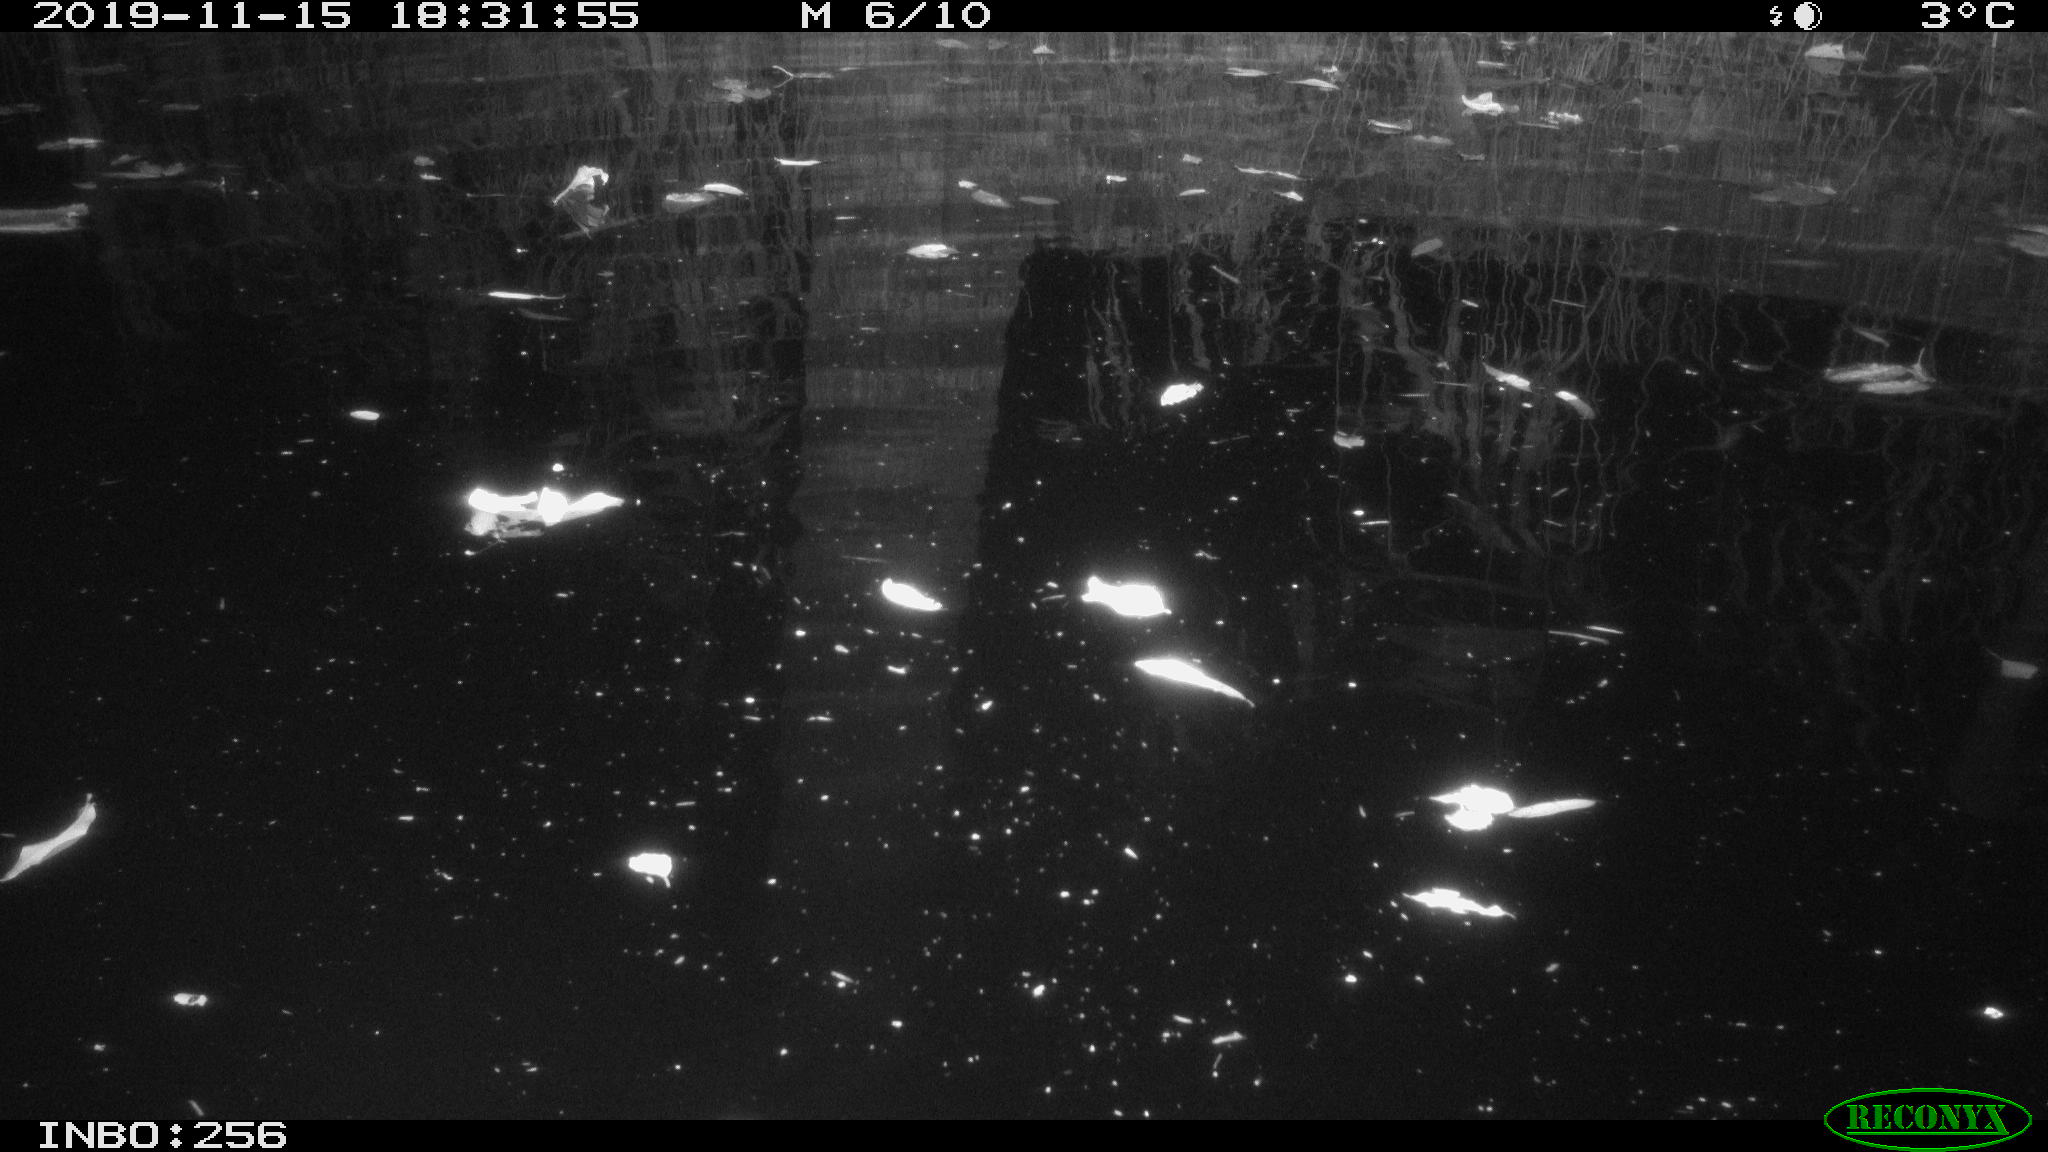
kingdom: Animalia
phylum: Chordata
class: Mammalia
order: Rodentia
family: Muridae
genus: Rattus
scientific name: Rattus norvegicus
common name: Brown rat
